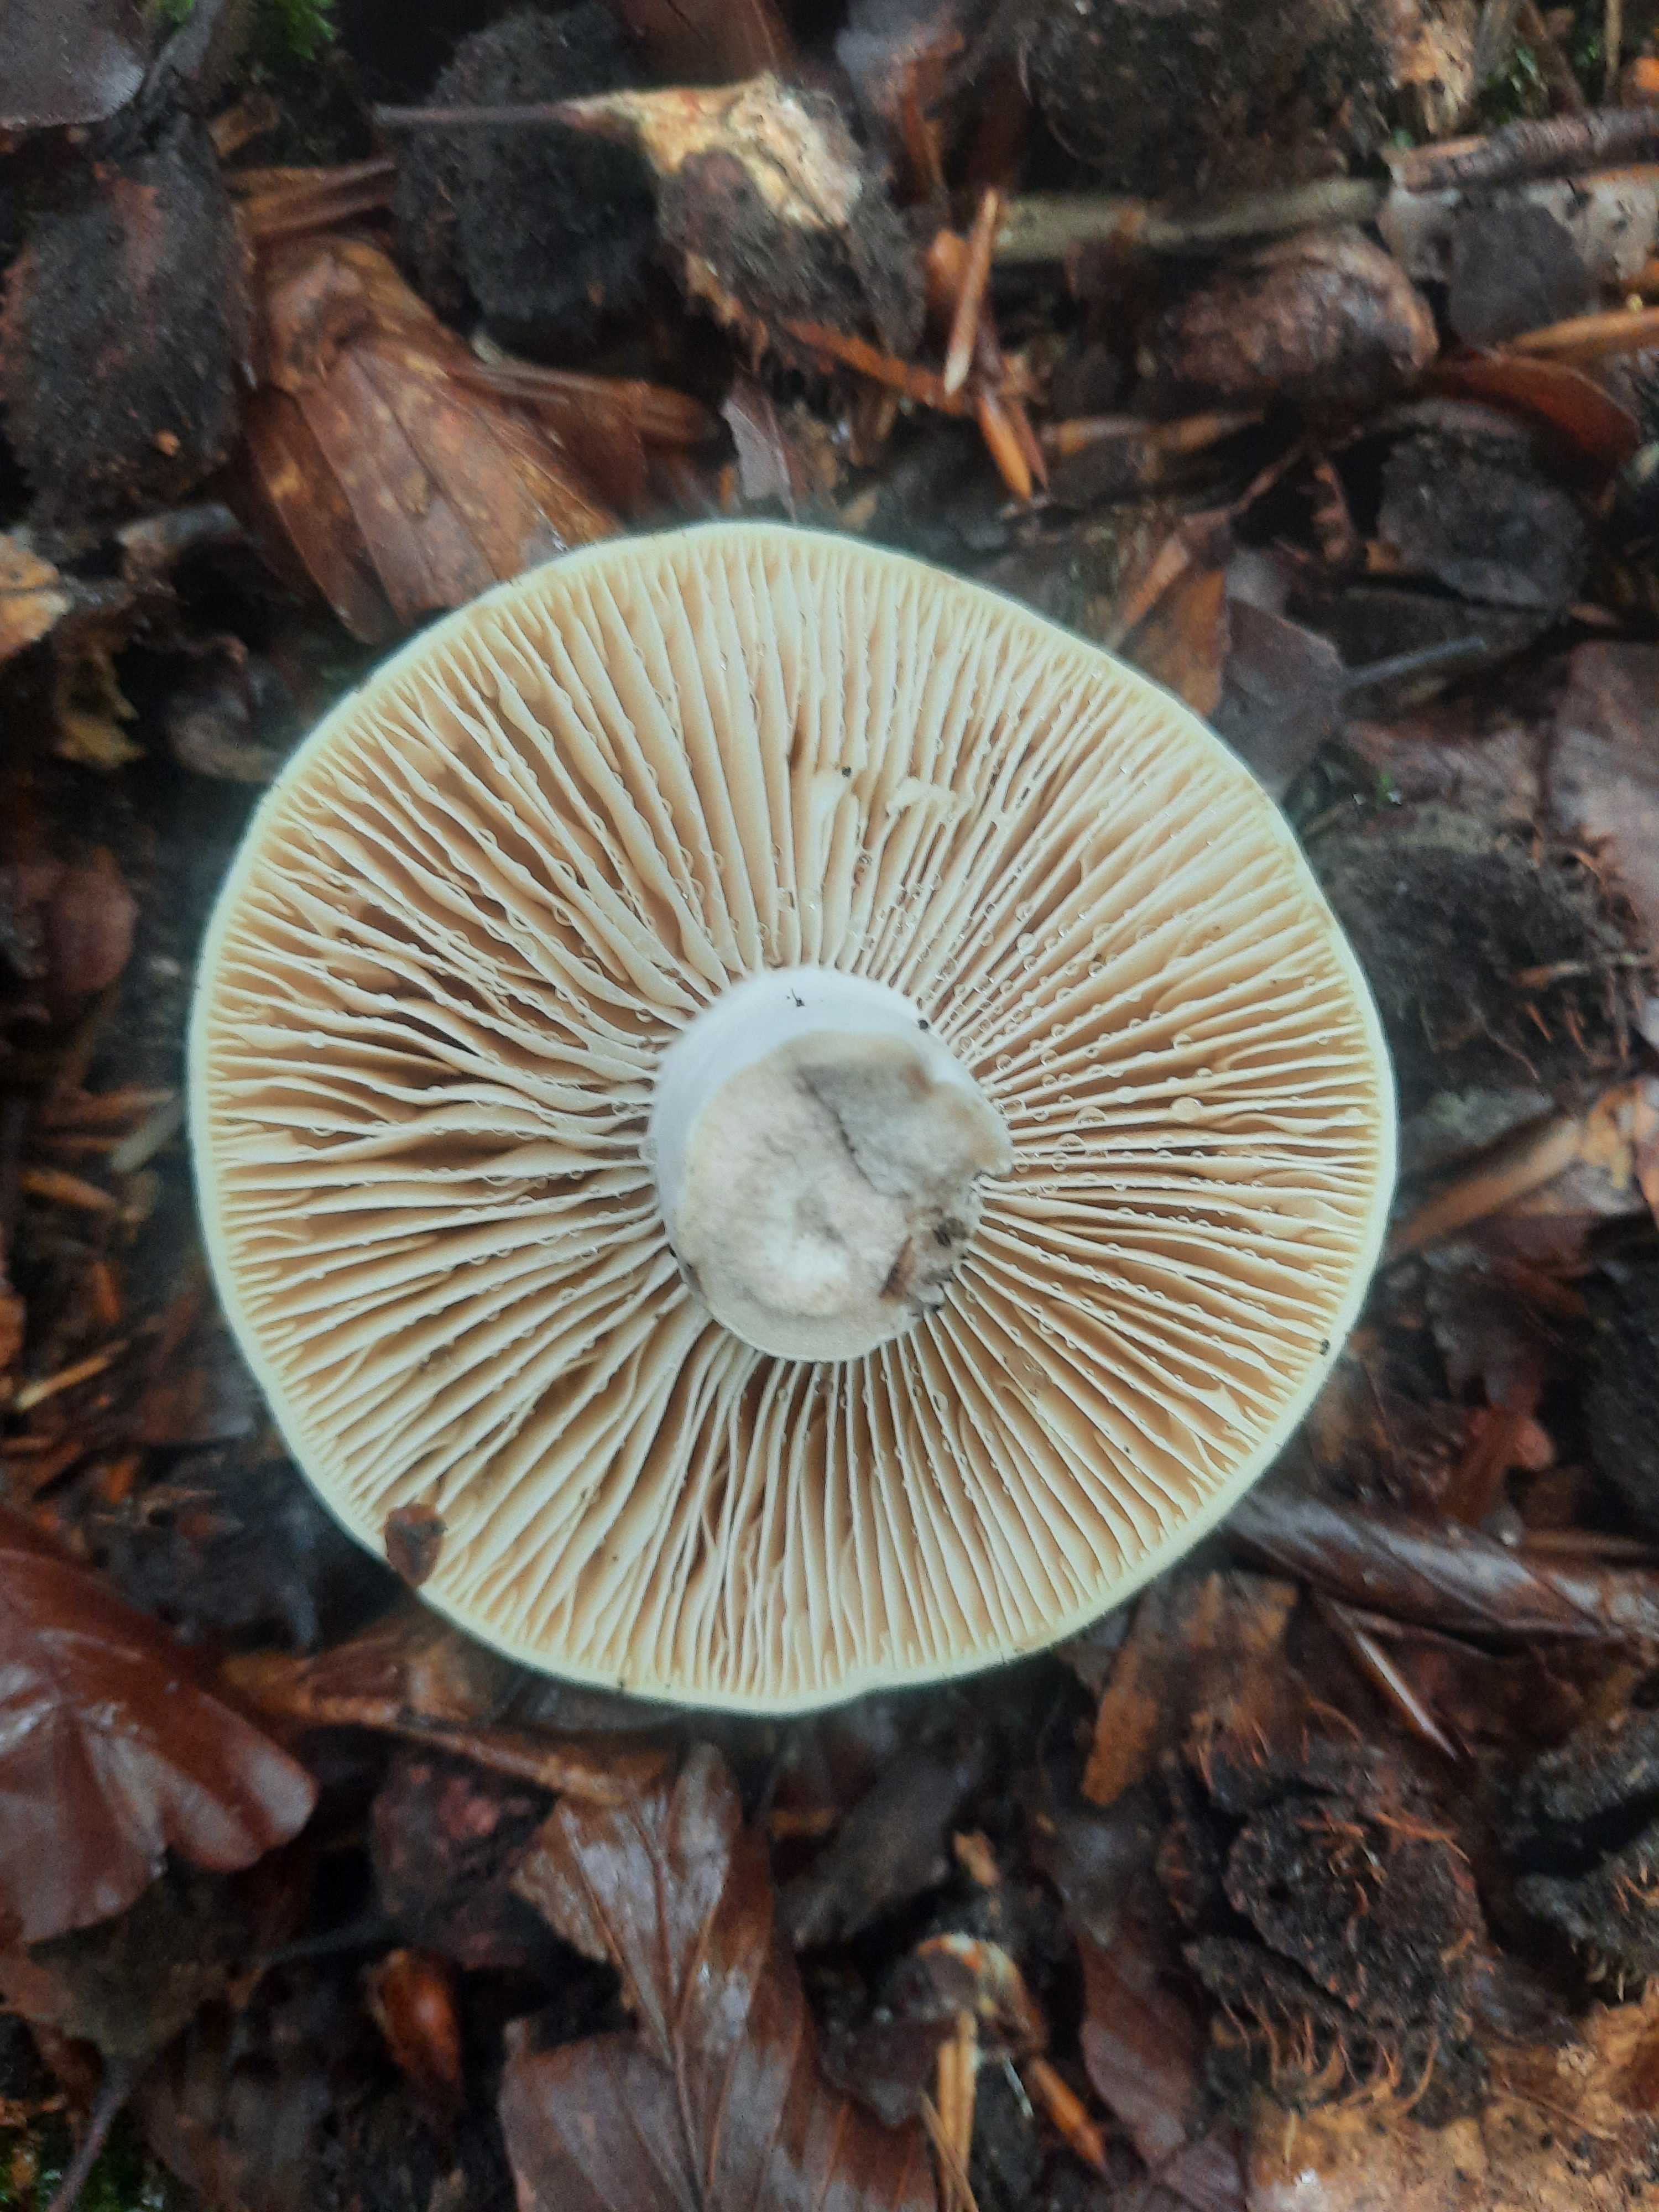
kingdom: Fungi
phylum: Basidiomycota
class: Agaricomycetes
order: Russulales
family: Russulaceae
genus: Russula
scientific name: Russula
